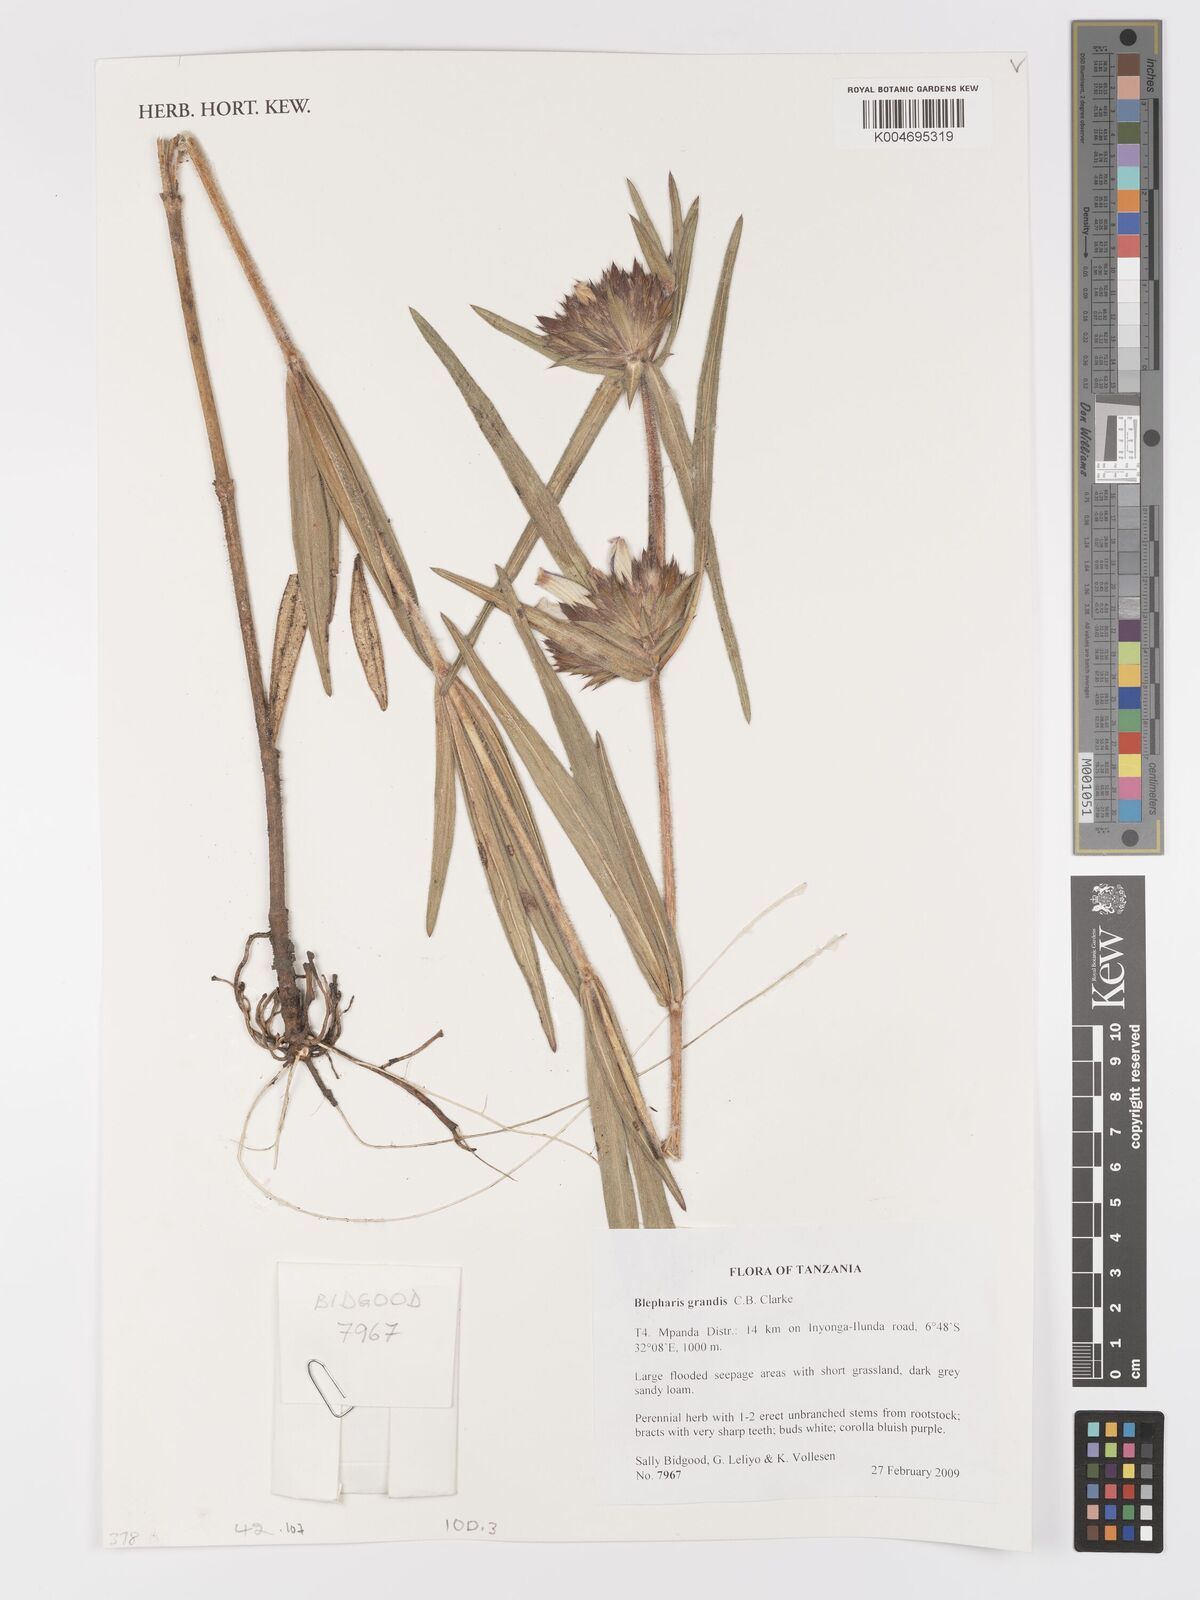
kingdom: Plantae
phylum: Tracheophyta
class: Magnoliopsida
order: Lamiales
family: Acanthaceae
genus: Blepharis
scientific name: Blepharis grandis
